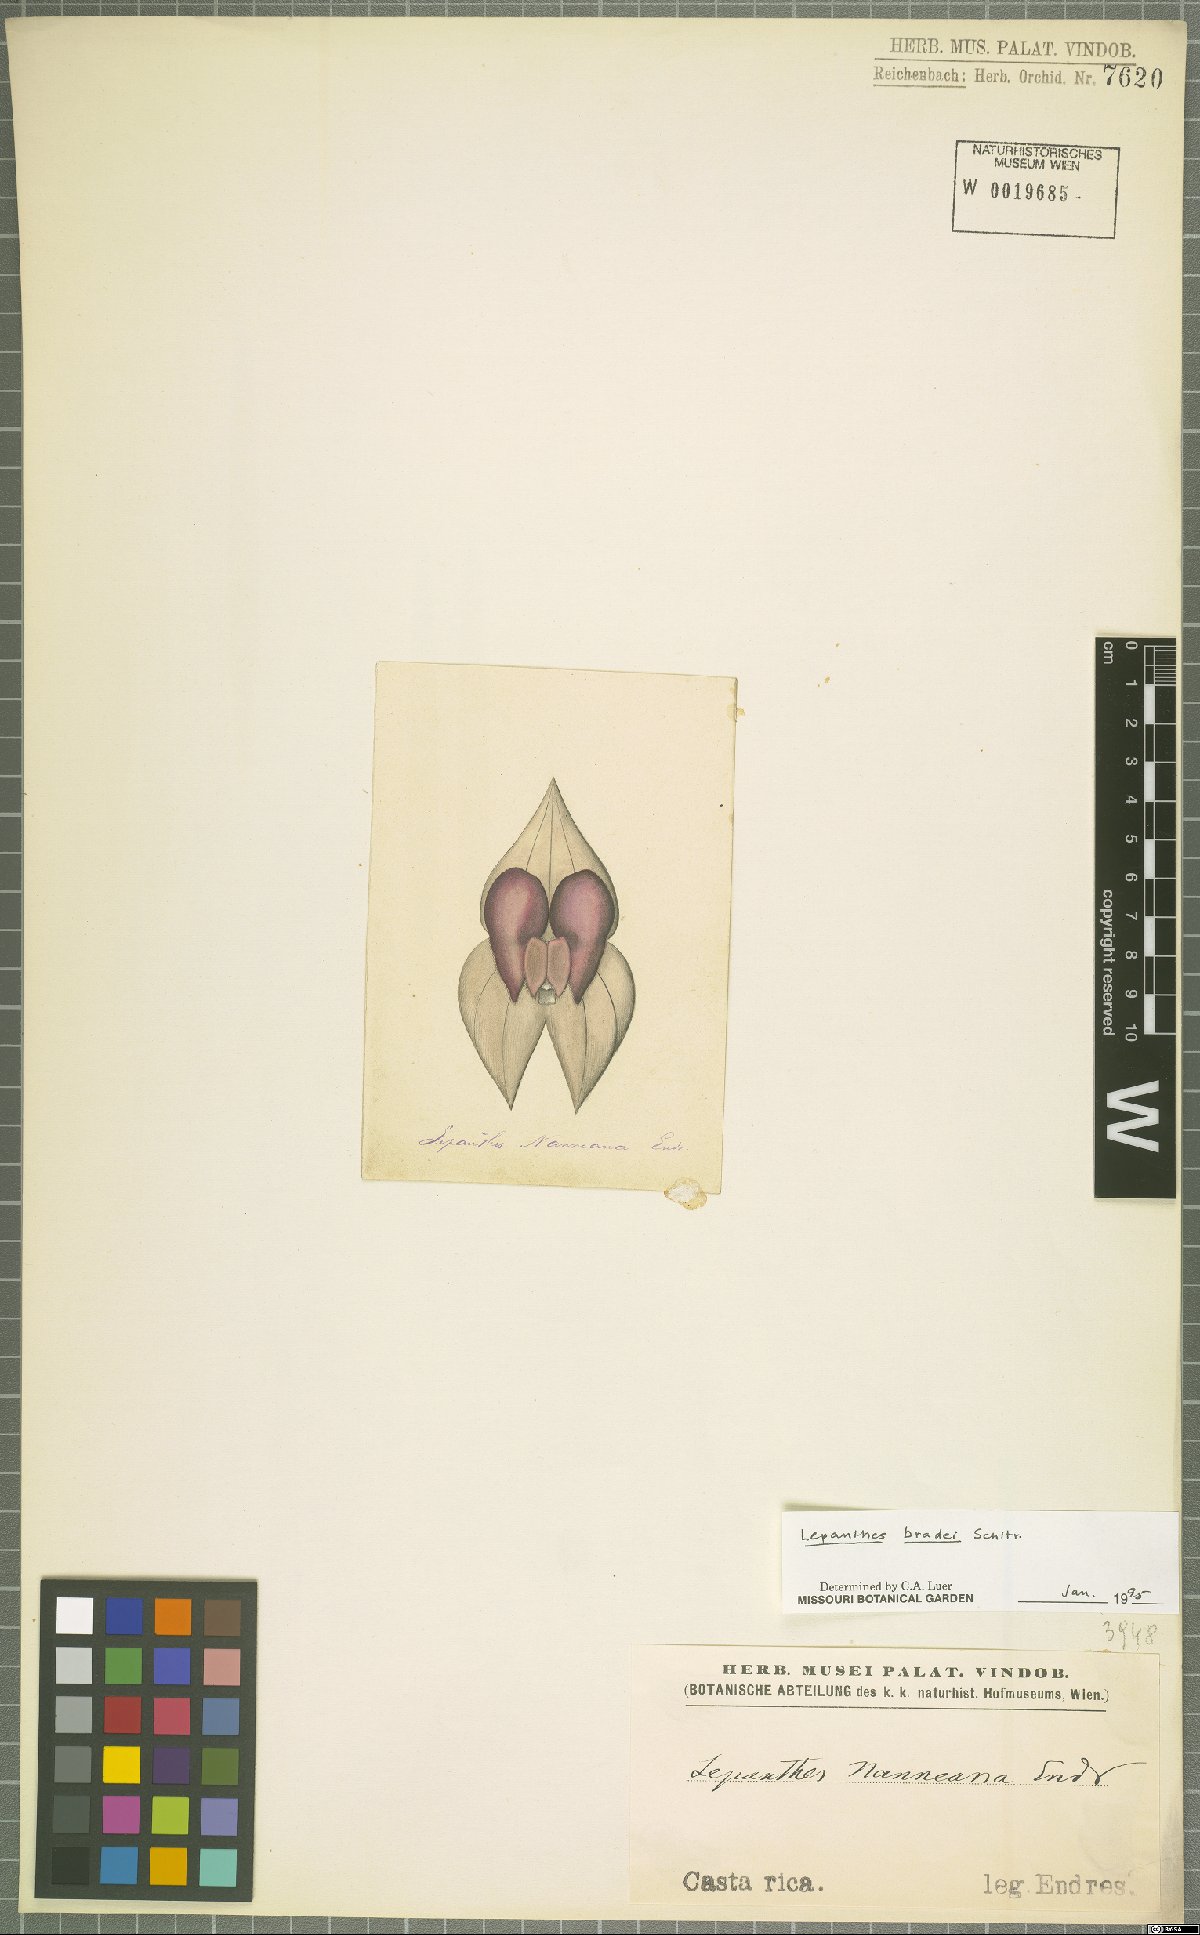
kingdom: Plantae
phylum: Tracheophyta
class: Liliopsida
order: Asparagales
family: Orchidaceae
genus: Lepanthes
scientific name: Lepanthes bradei
